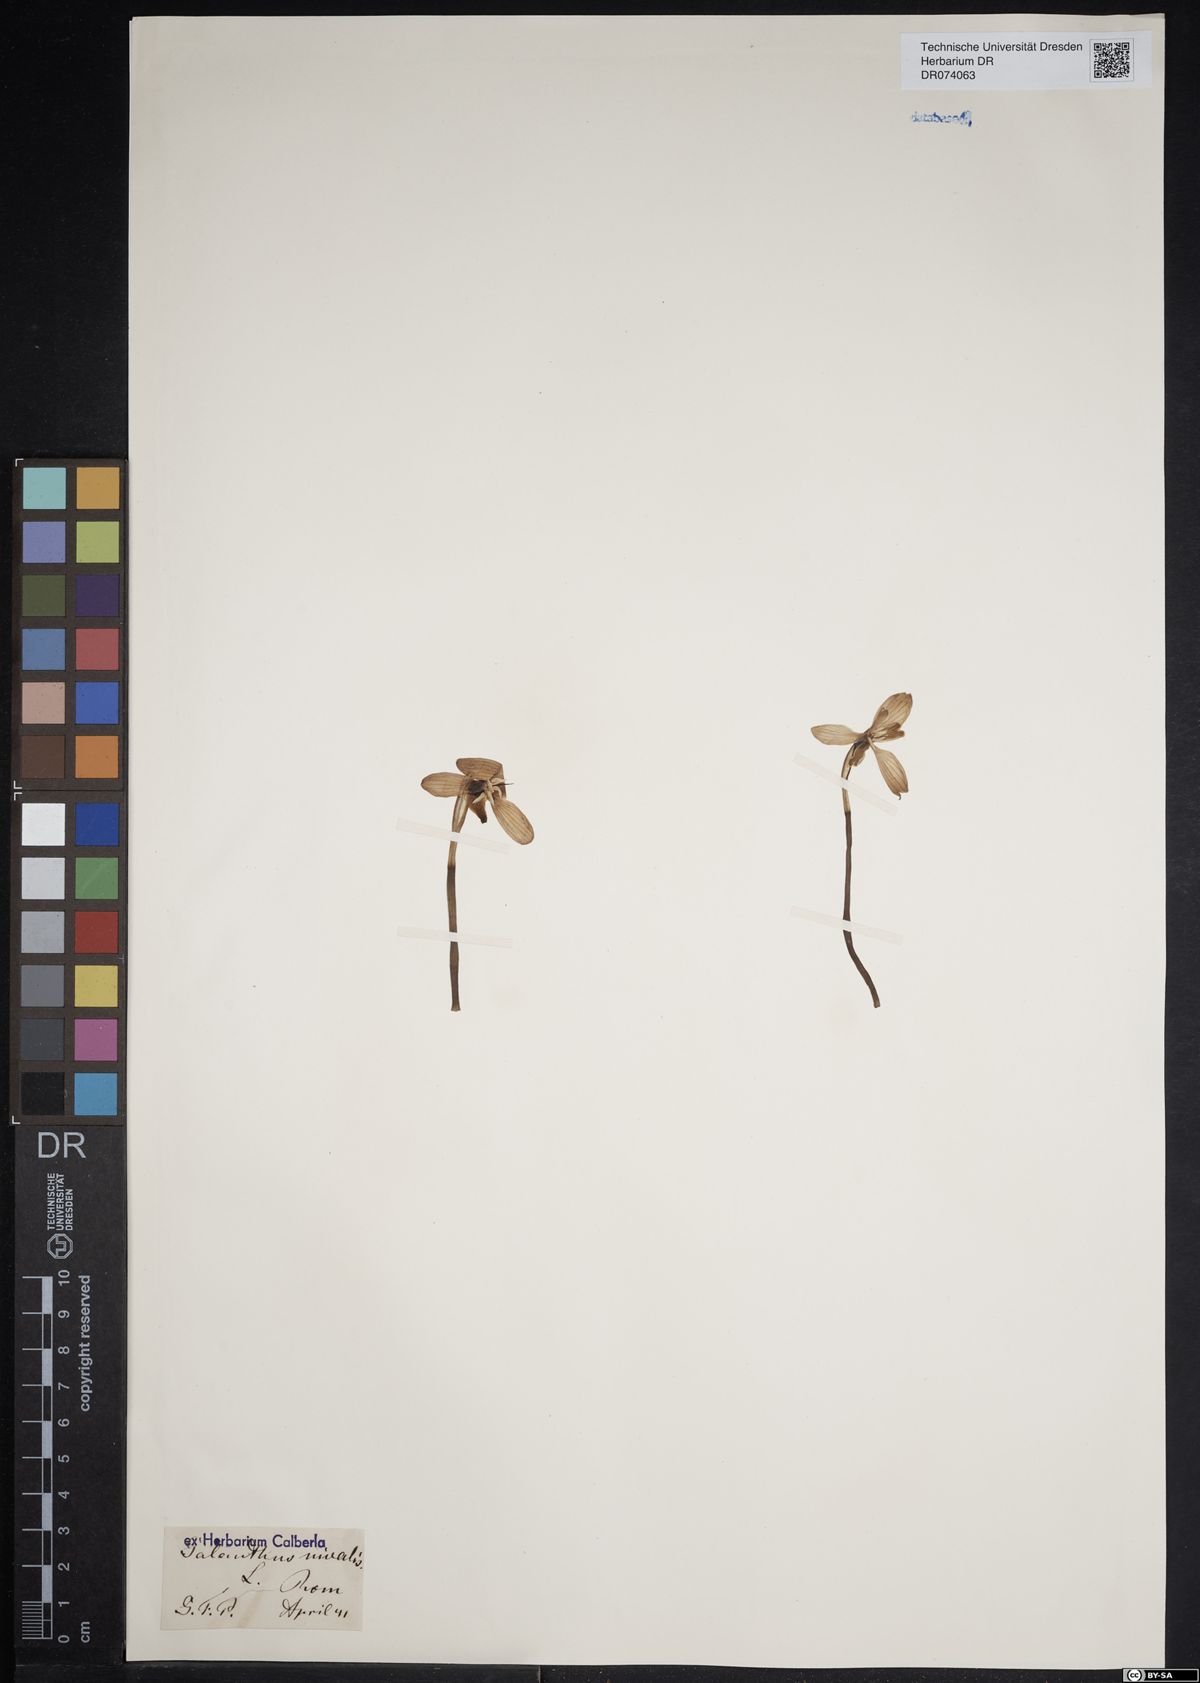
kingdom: Plantae
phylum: Tracheophyta
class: Liliopsida
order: Asparagales
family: Amaryllidaceae
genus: Galanthus
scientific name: Galanthus nivalis
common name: Snowdrop
